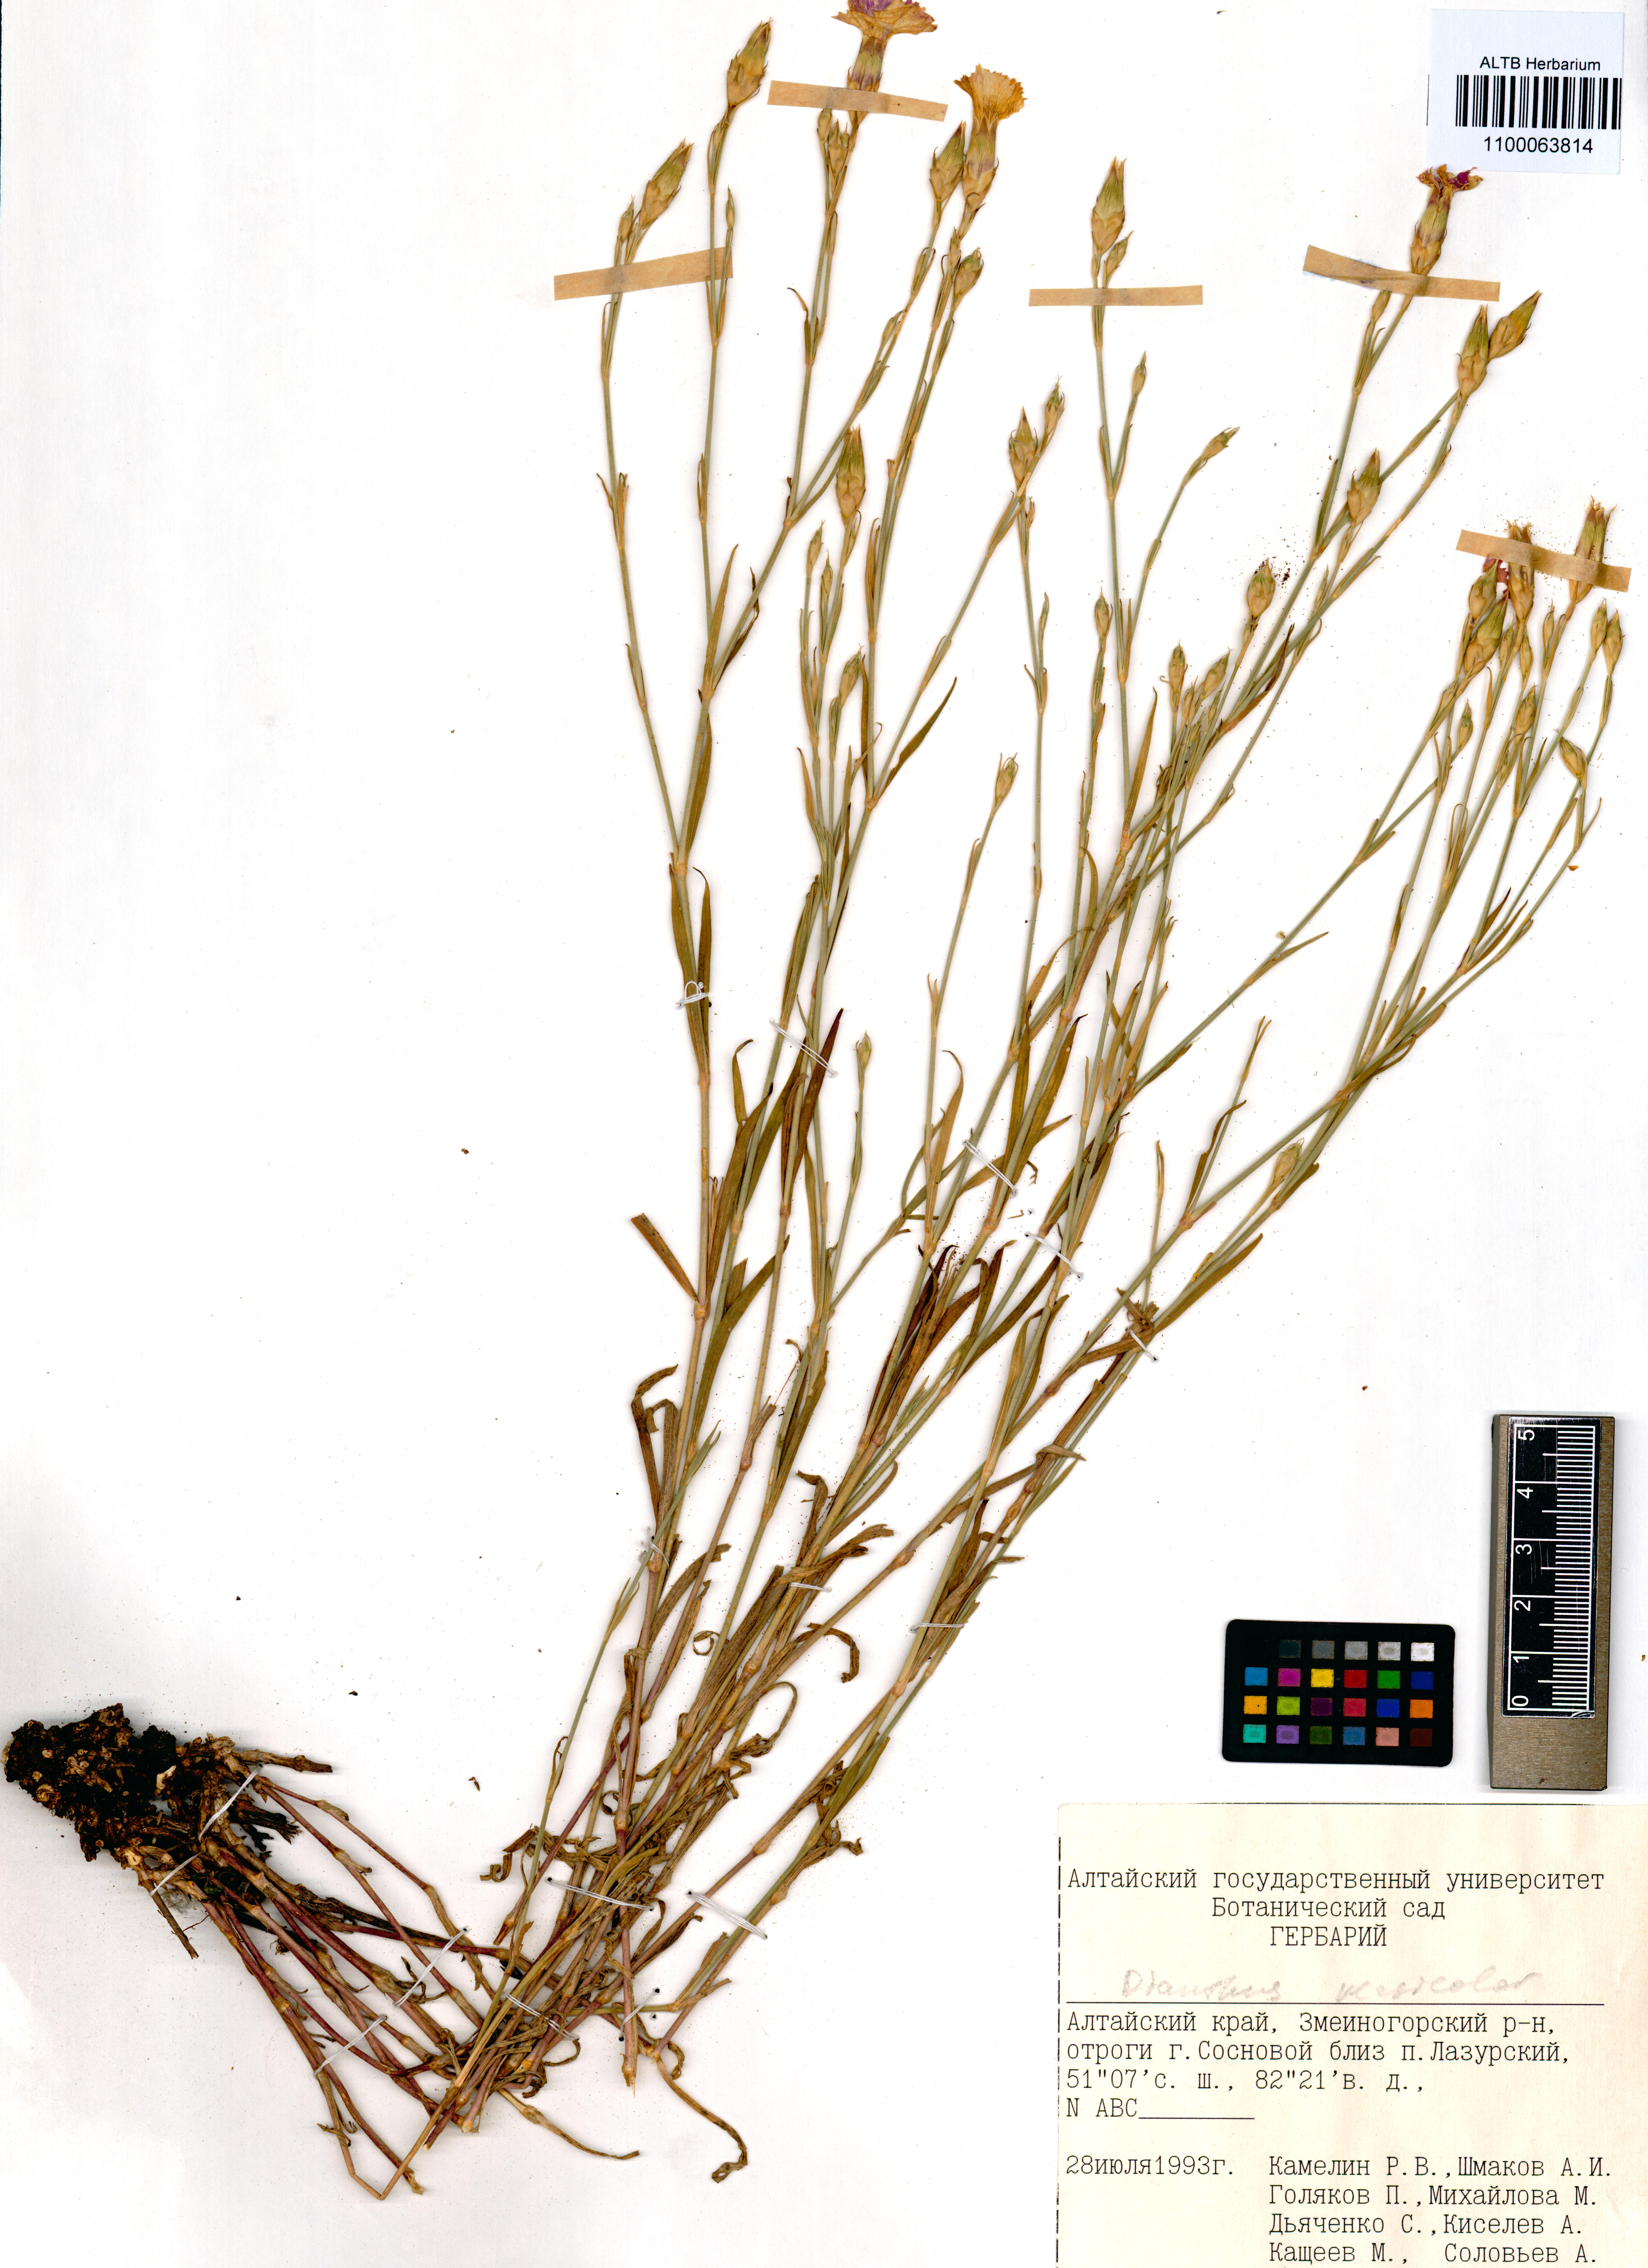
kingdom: Plantae
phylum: Tracheophyta
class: Magnoliopsida
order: Caryophyllales
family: Caryophyllaceae
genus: Dianthus
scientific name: Dianthus chinensis
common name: Rainbow pink
